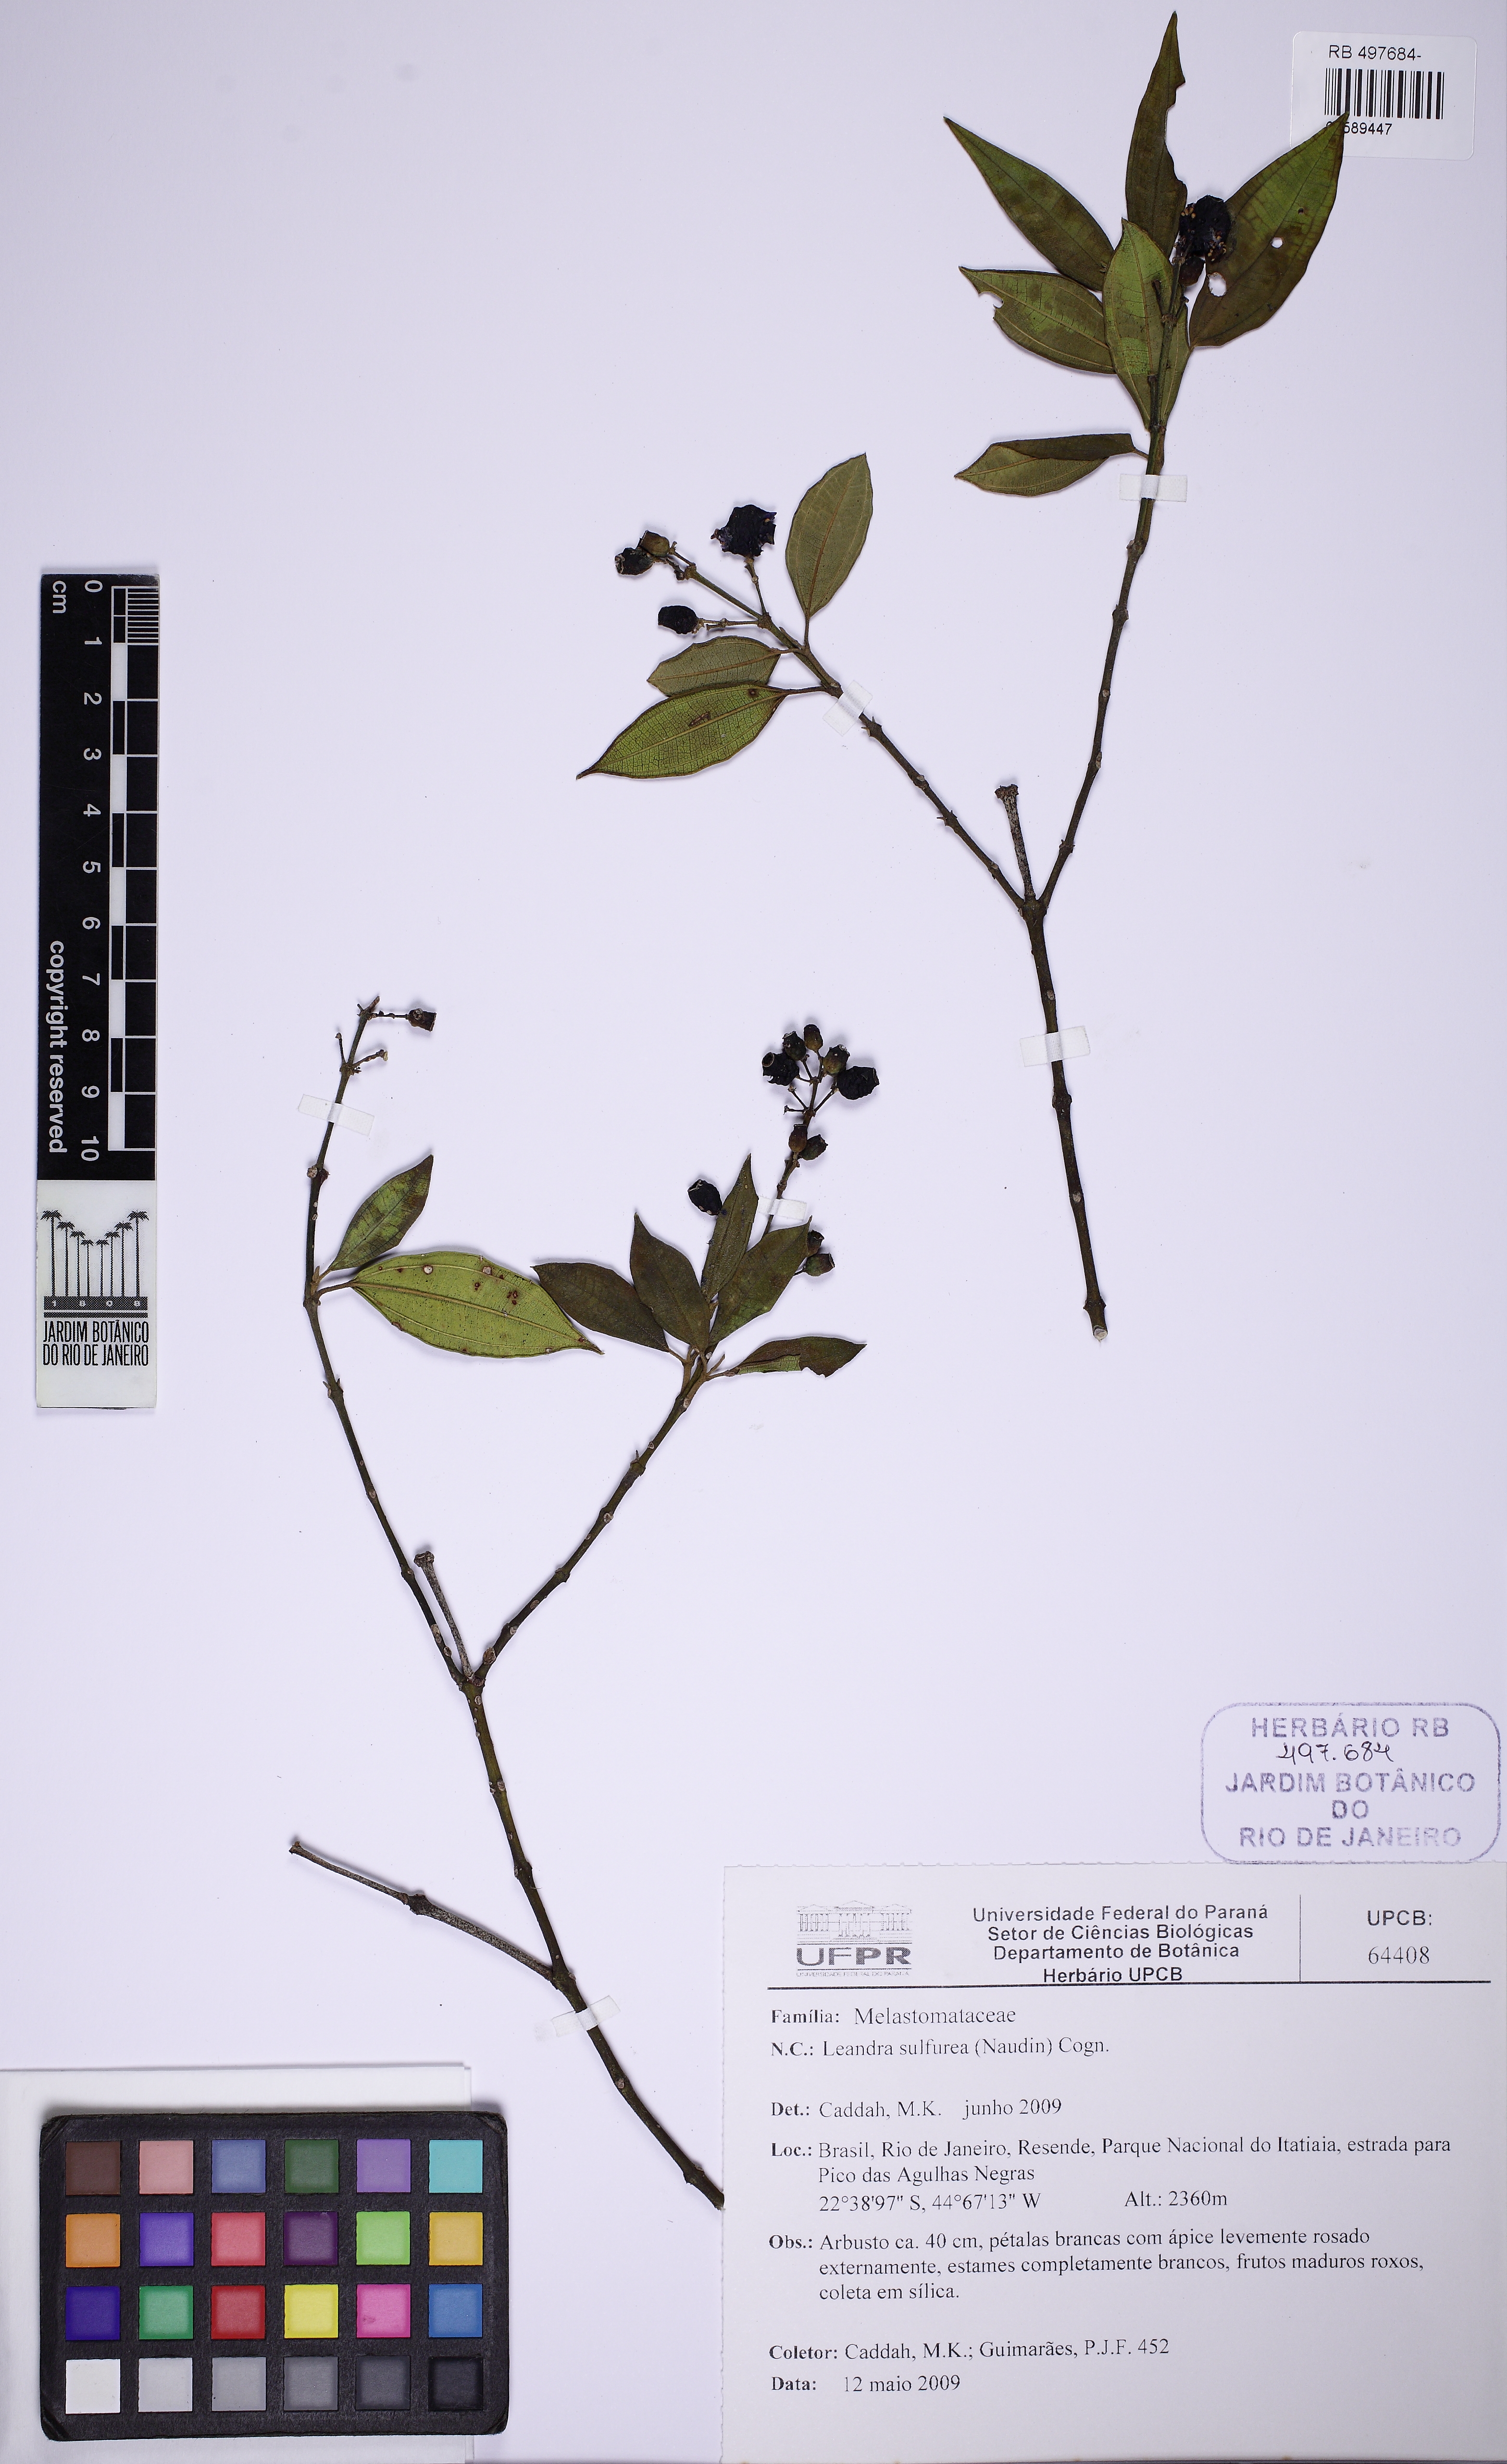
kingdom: Plantae
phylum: Tracheophyta
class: Magnoliopsida
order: Myrtales
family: Melastomataceae
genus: Miconia
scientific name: Miconia sulfurea
